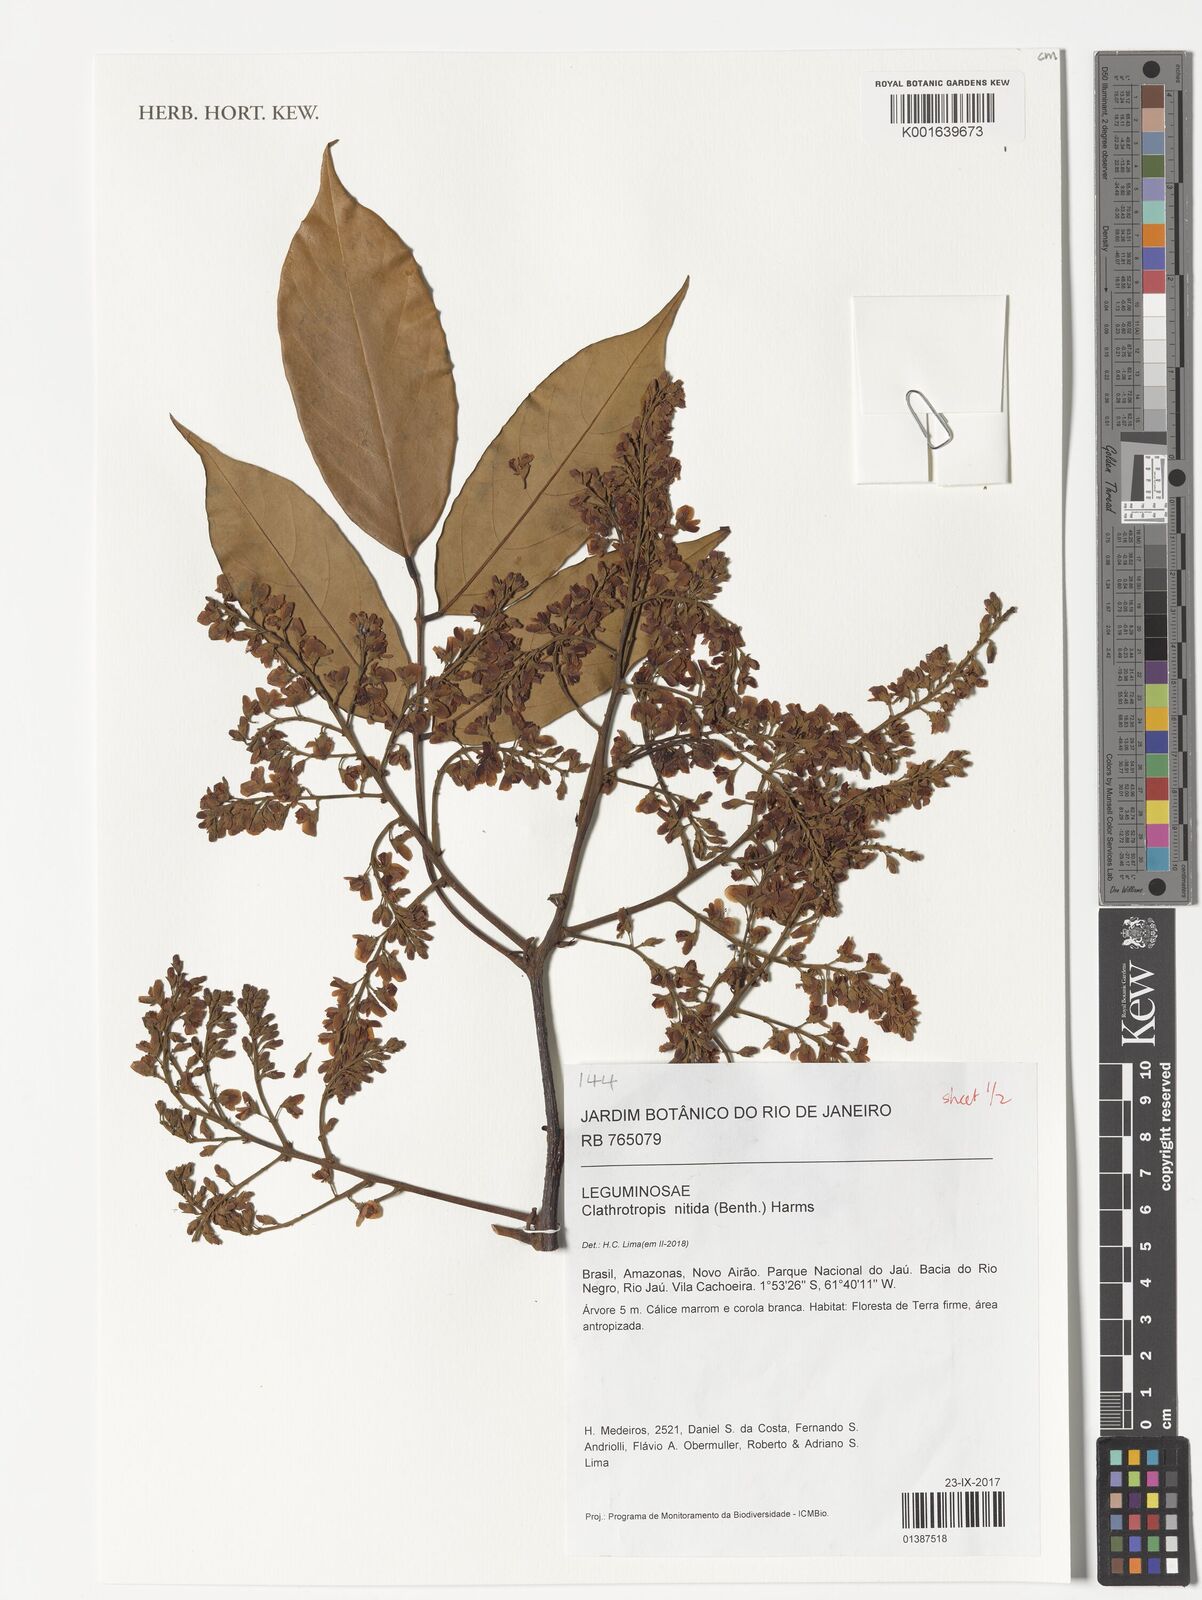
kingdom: Plantae
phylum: Tracheophyta
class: Magnoliopsida
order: Fabales
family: Fabaceae
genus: Clathrotropis
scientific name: Clathrotropis nitida
